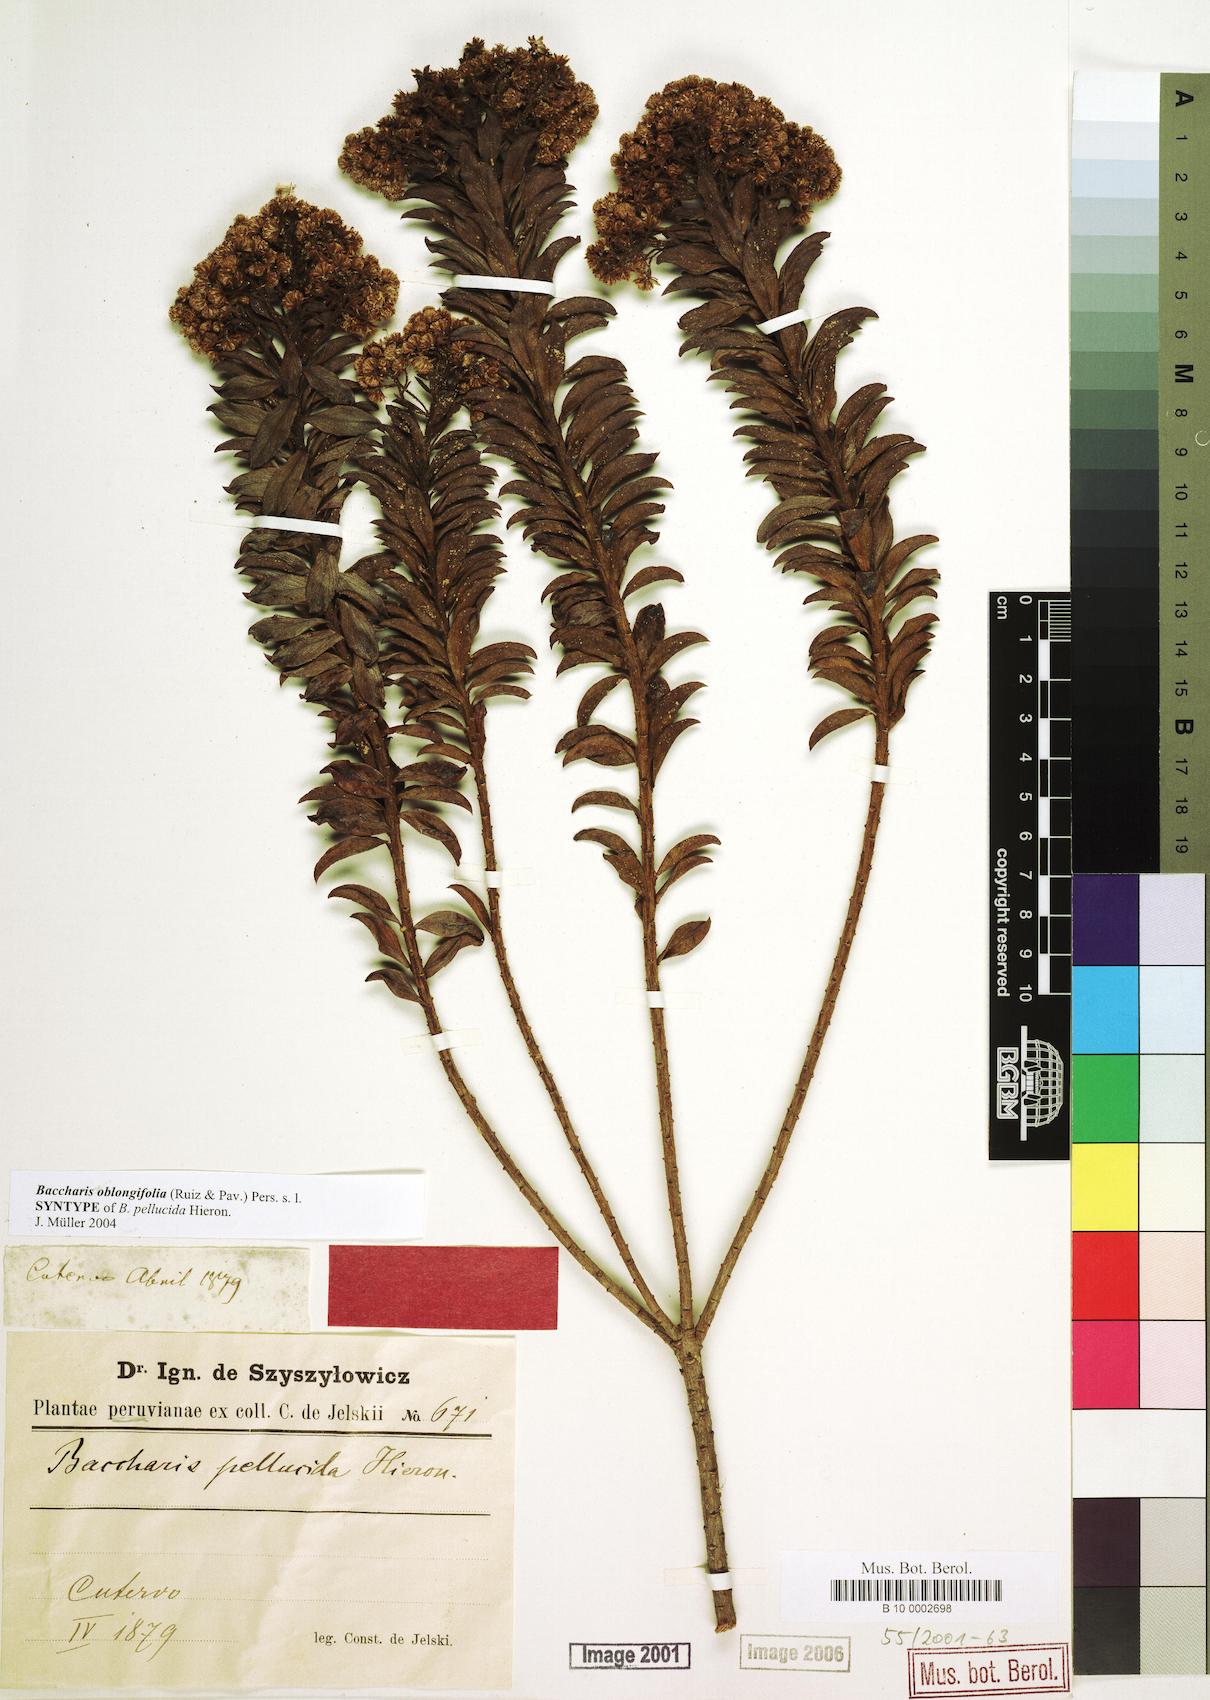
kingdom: Plantae
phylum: Tracheophyta
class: Magnoliopsida
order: Asterales
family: Asteraceae
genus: Baccharis
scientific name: Baccharis pellucida
